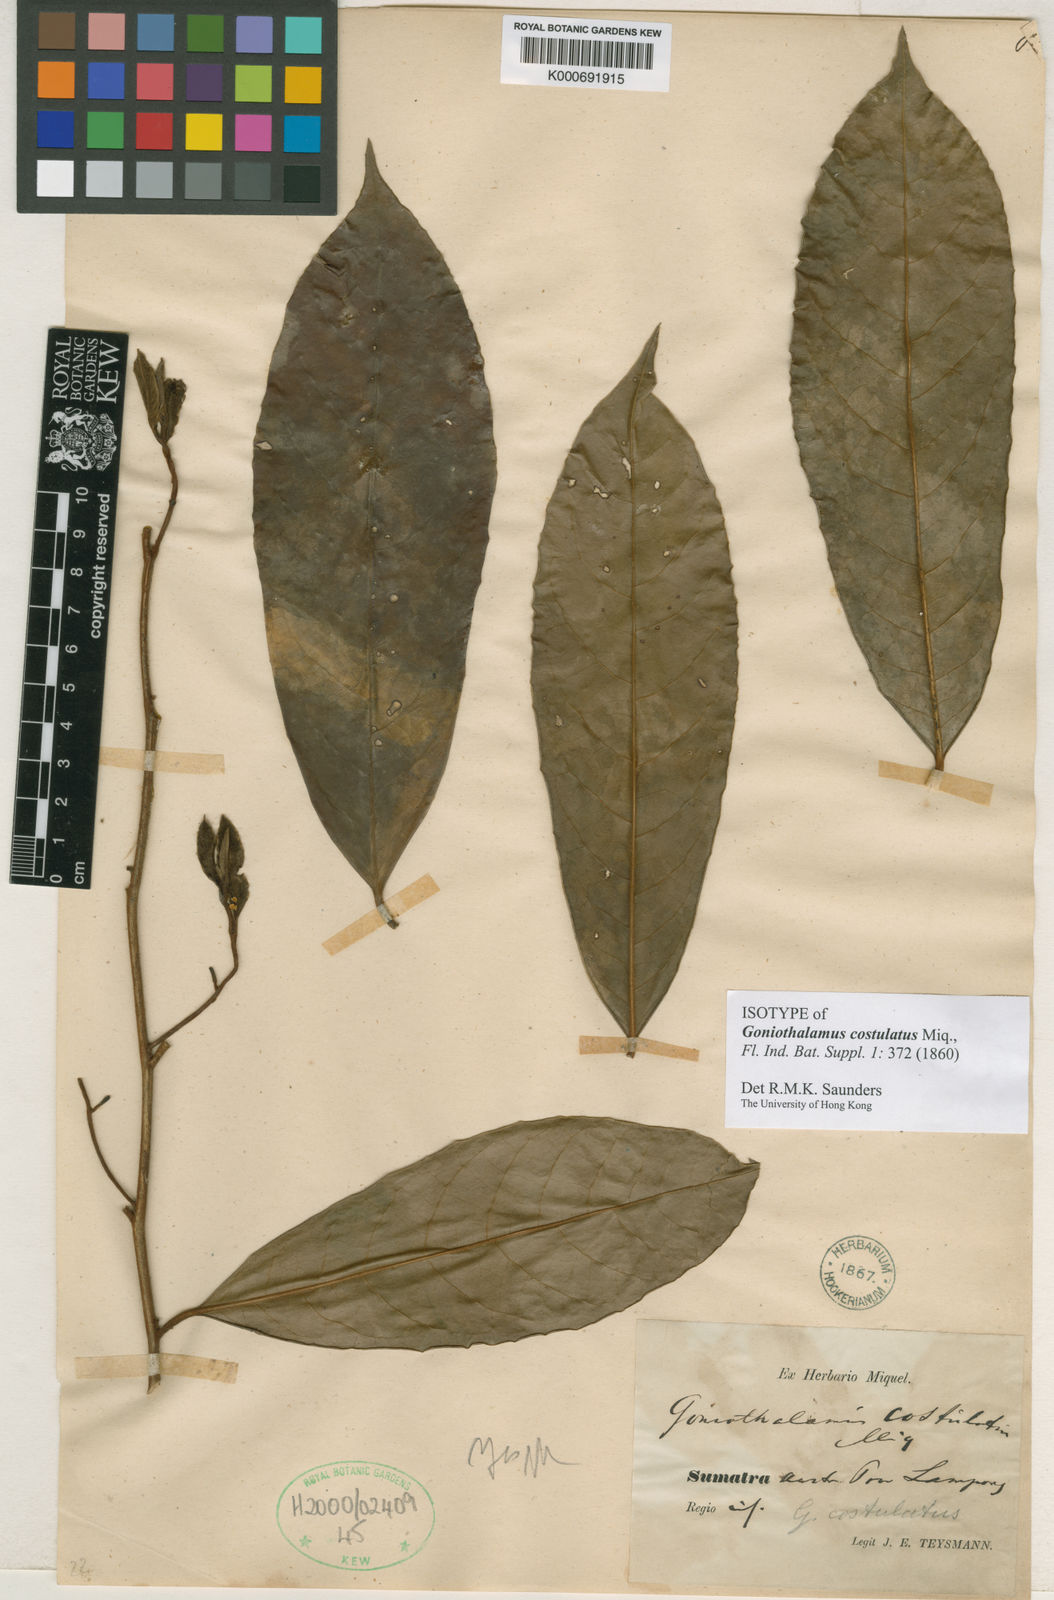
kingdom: Plantae
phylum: Tracheophyta
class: Magnoliopsida
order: Magnoliales
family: Annonaceae
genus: Goniothalamus
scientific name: Goniothalamus costulatus
